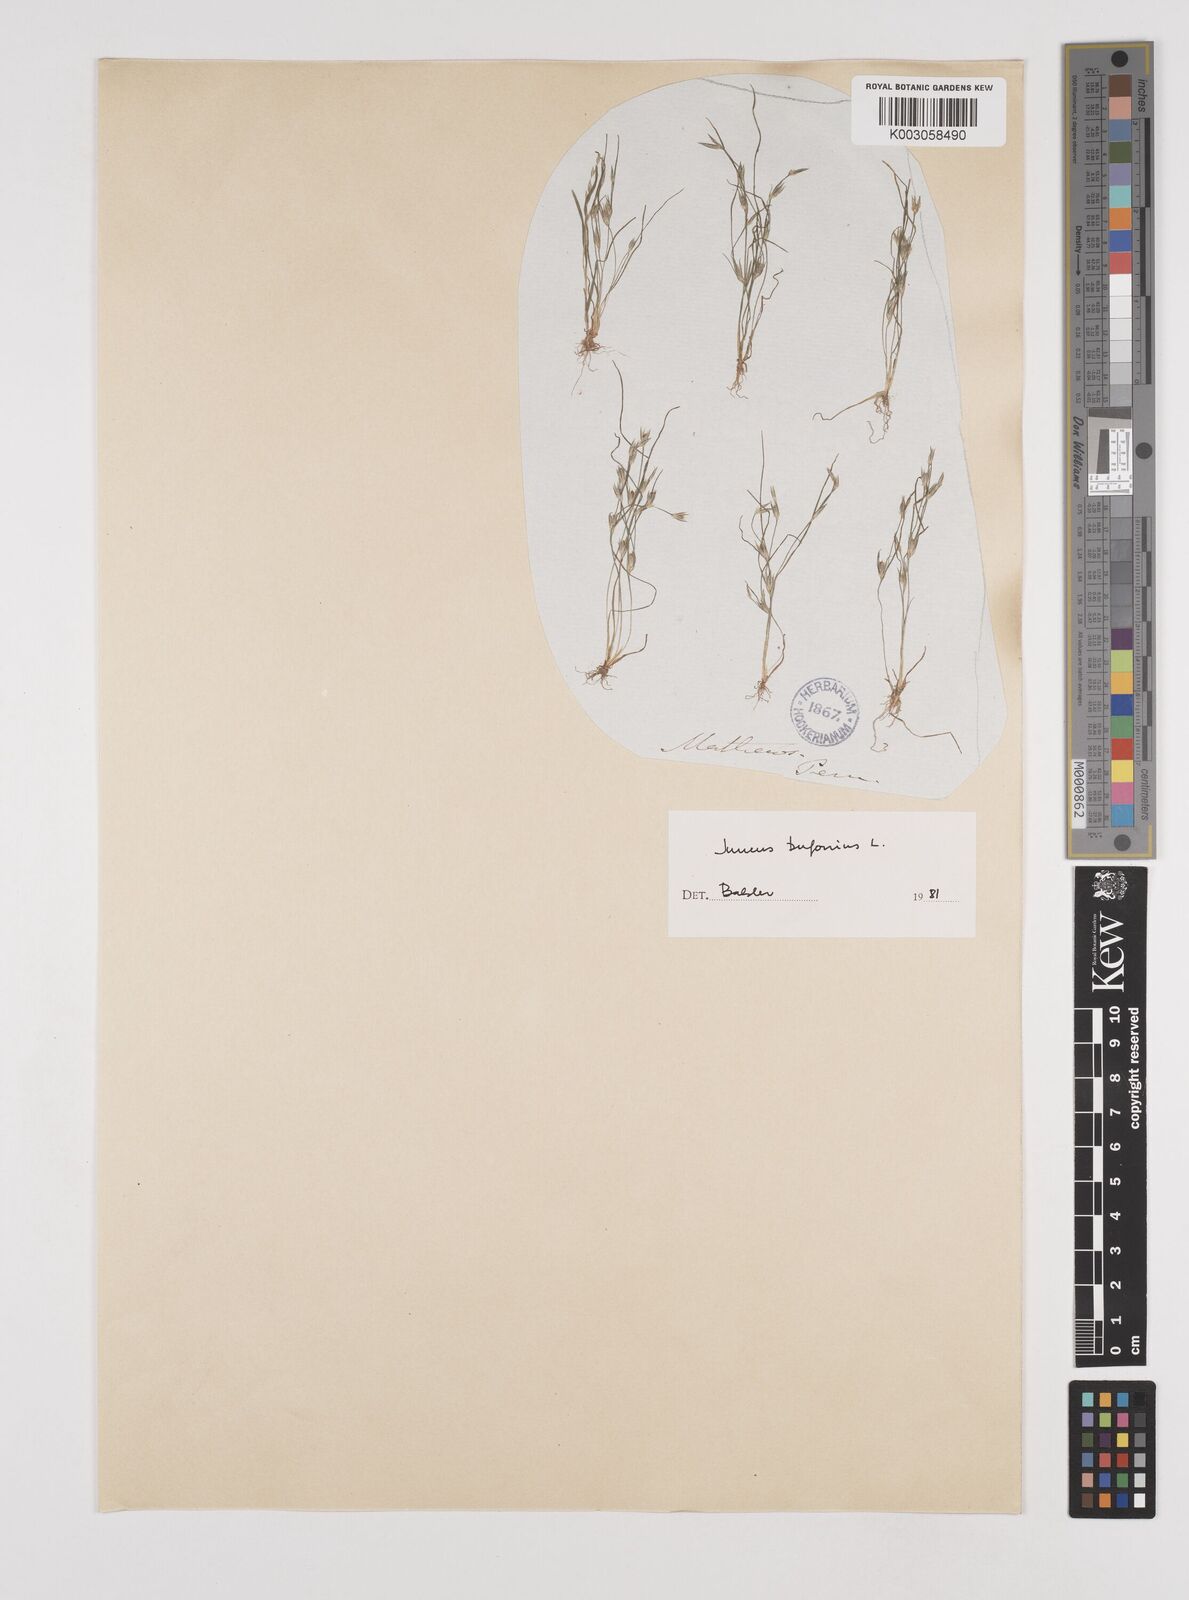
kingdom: Plantae
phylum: Tracheophyta
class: Liliopsida
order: Poales
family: Juncaceae
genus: Juncus
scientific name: Juncus bufonius
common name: Toad rush
